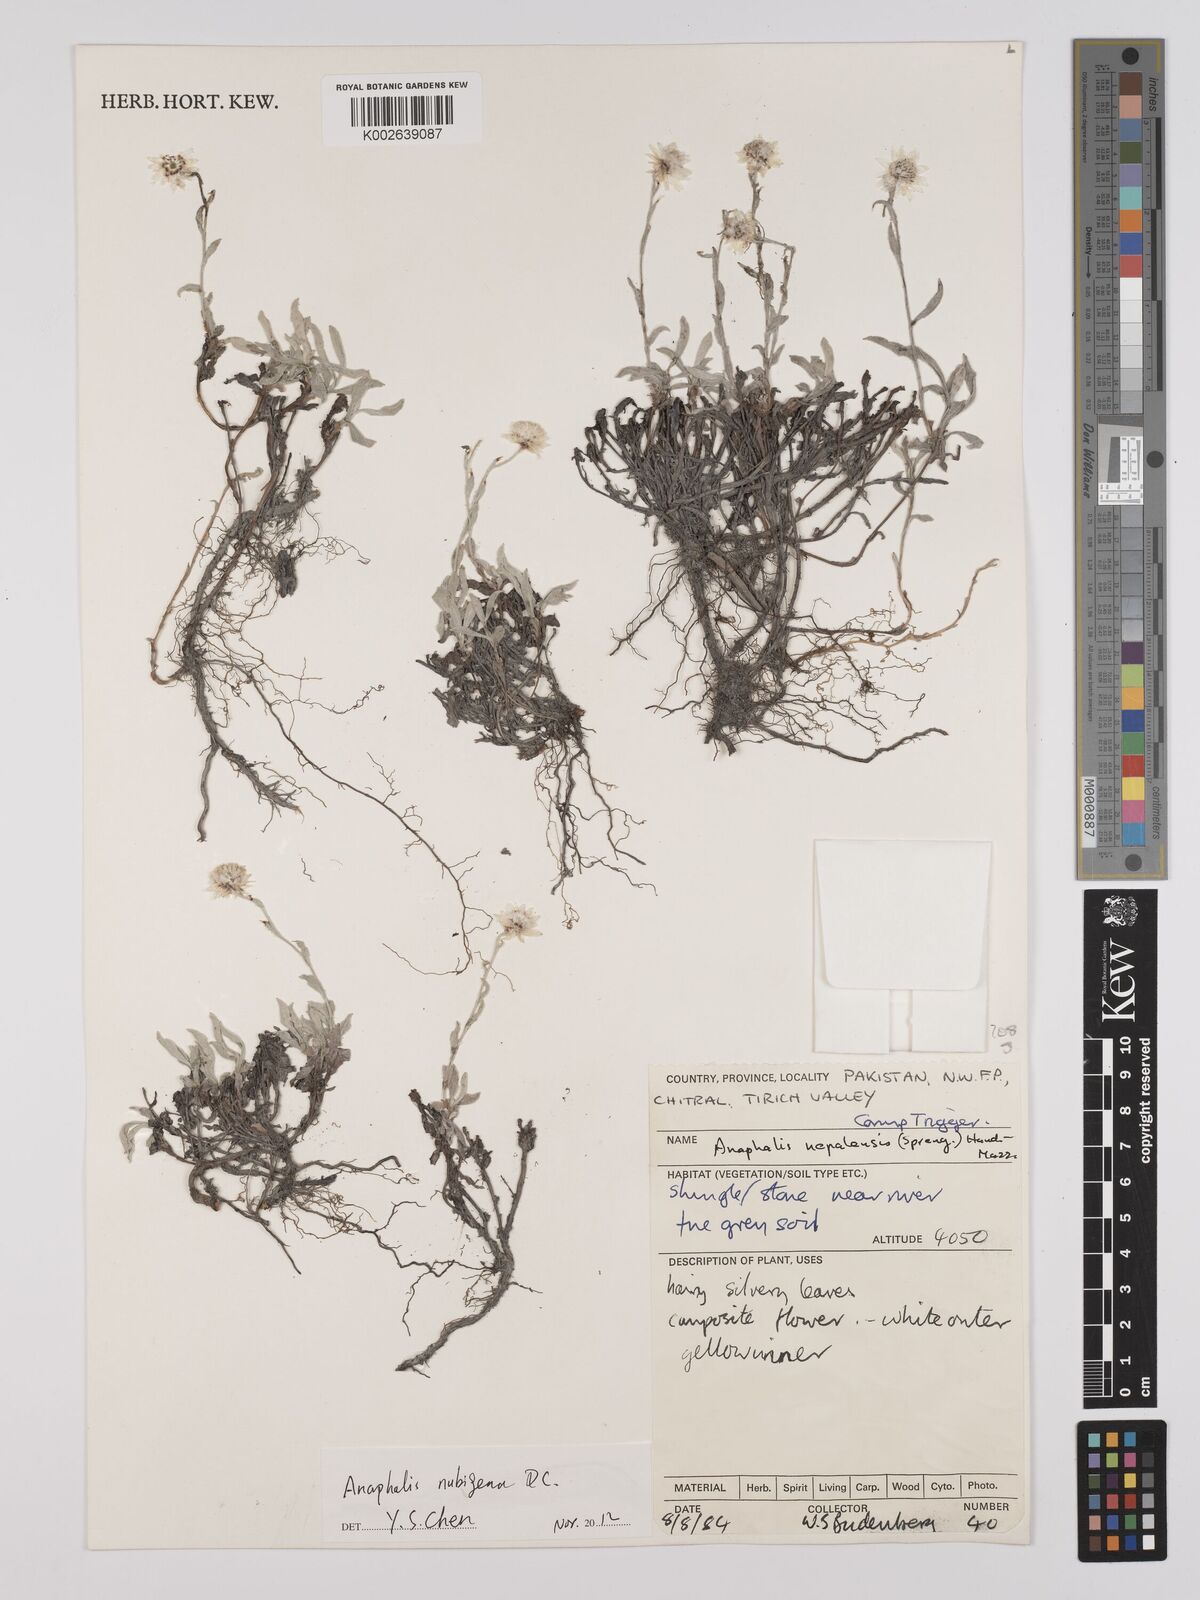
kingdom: Plantae
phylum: Tracheophyta
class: Magnoliopsida
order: Asterales
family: Asteraceae
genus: Anaphalis
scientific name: Anaphalis nepalensis
